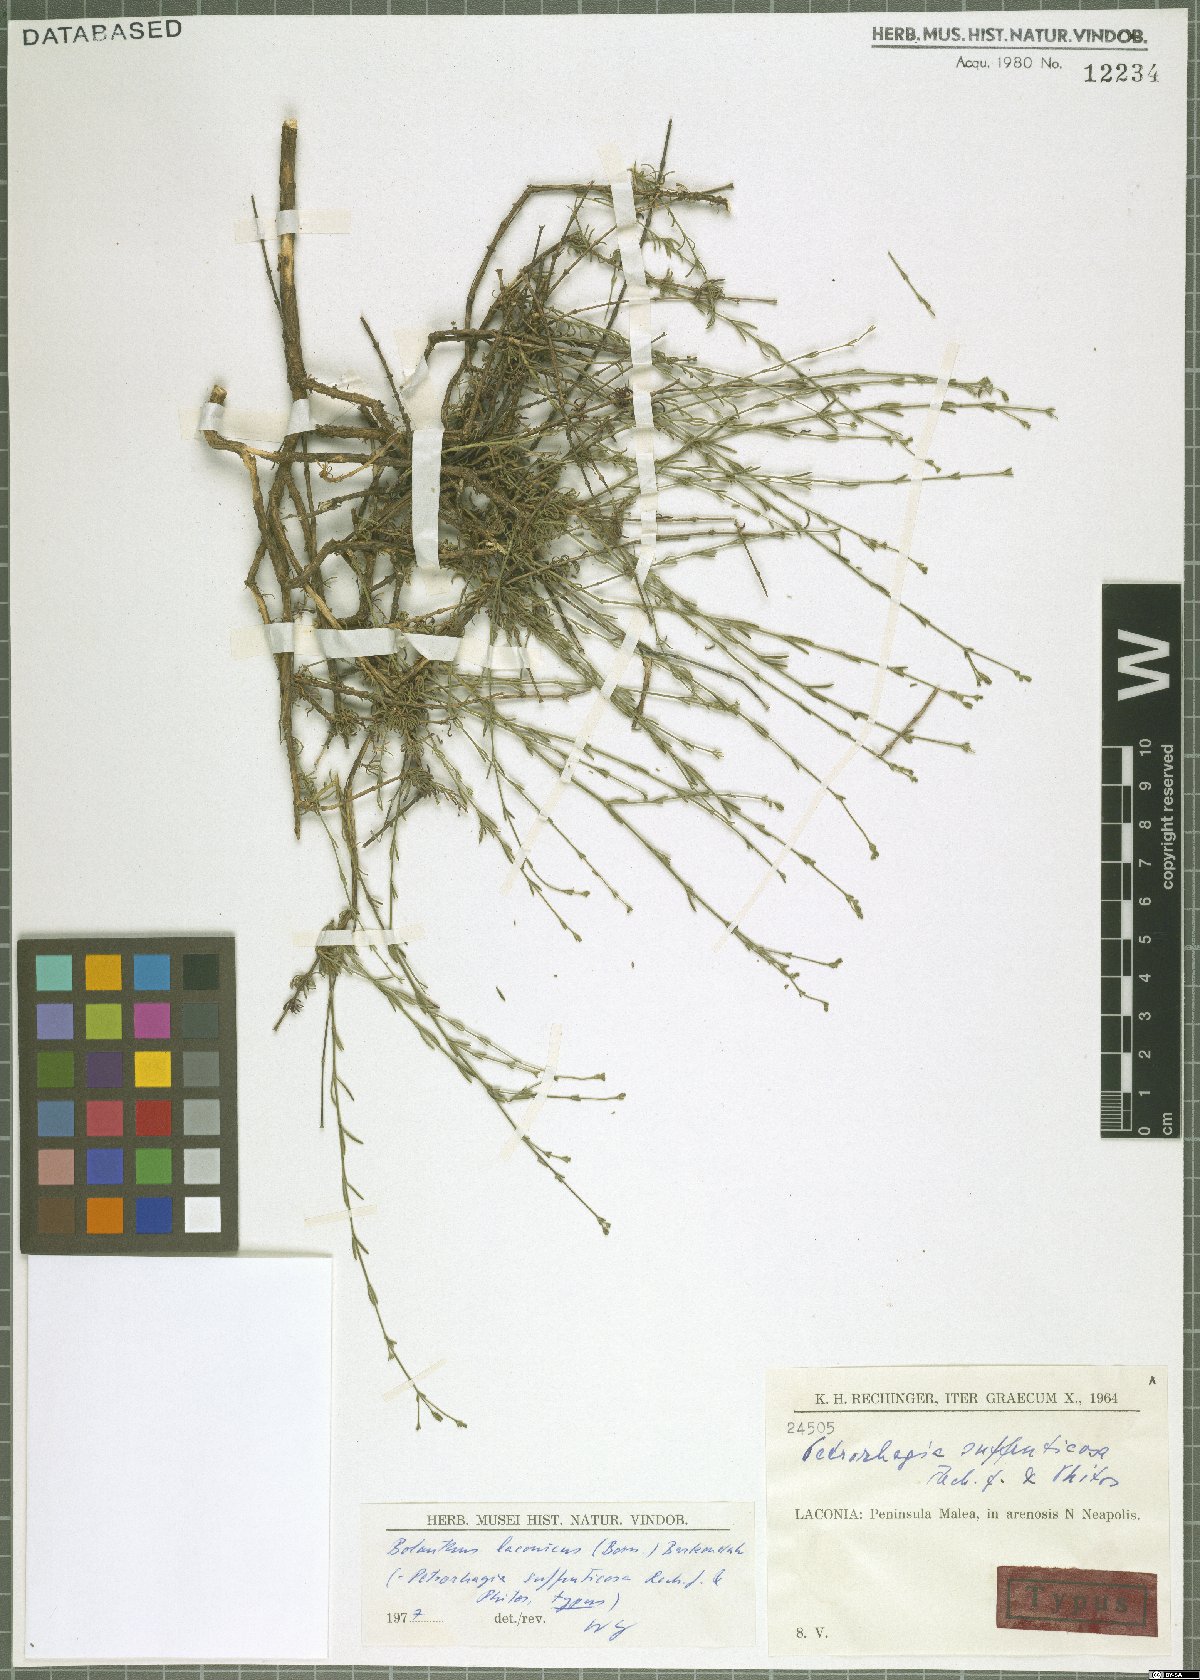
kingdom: Plantae
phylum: Tracheophyta
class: Magnoliopsida
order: Caryophyllales
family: Caryophyllaceae
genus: Graecobolanthus
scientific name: Graecobolanthus laconicus
